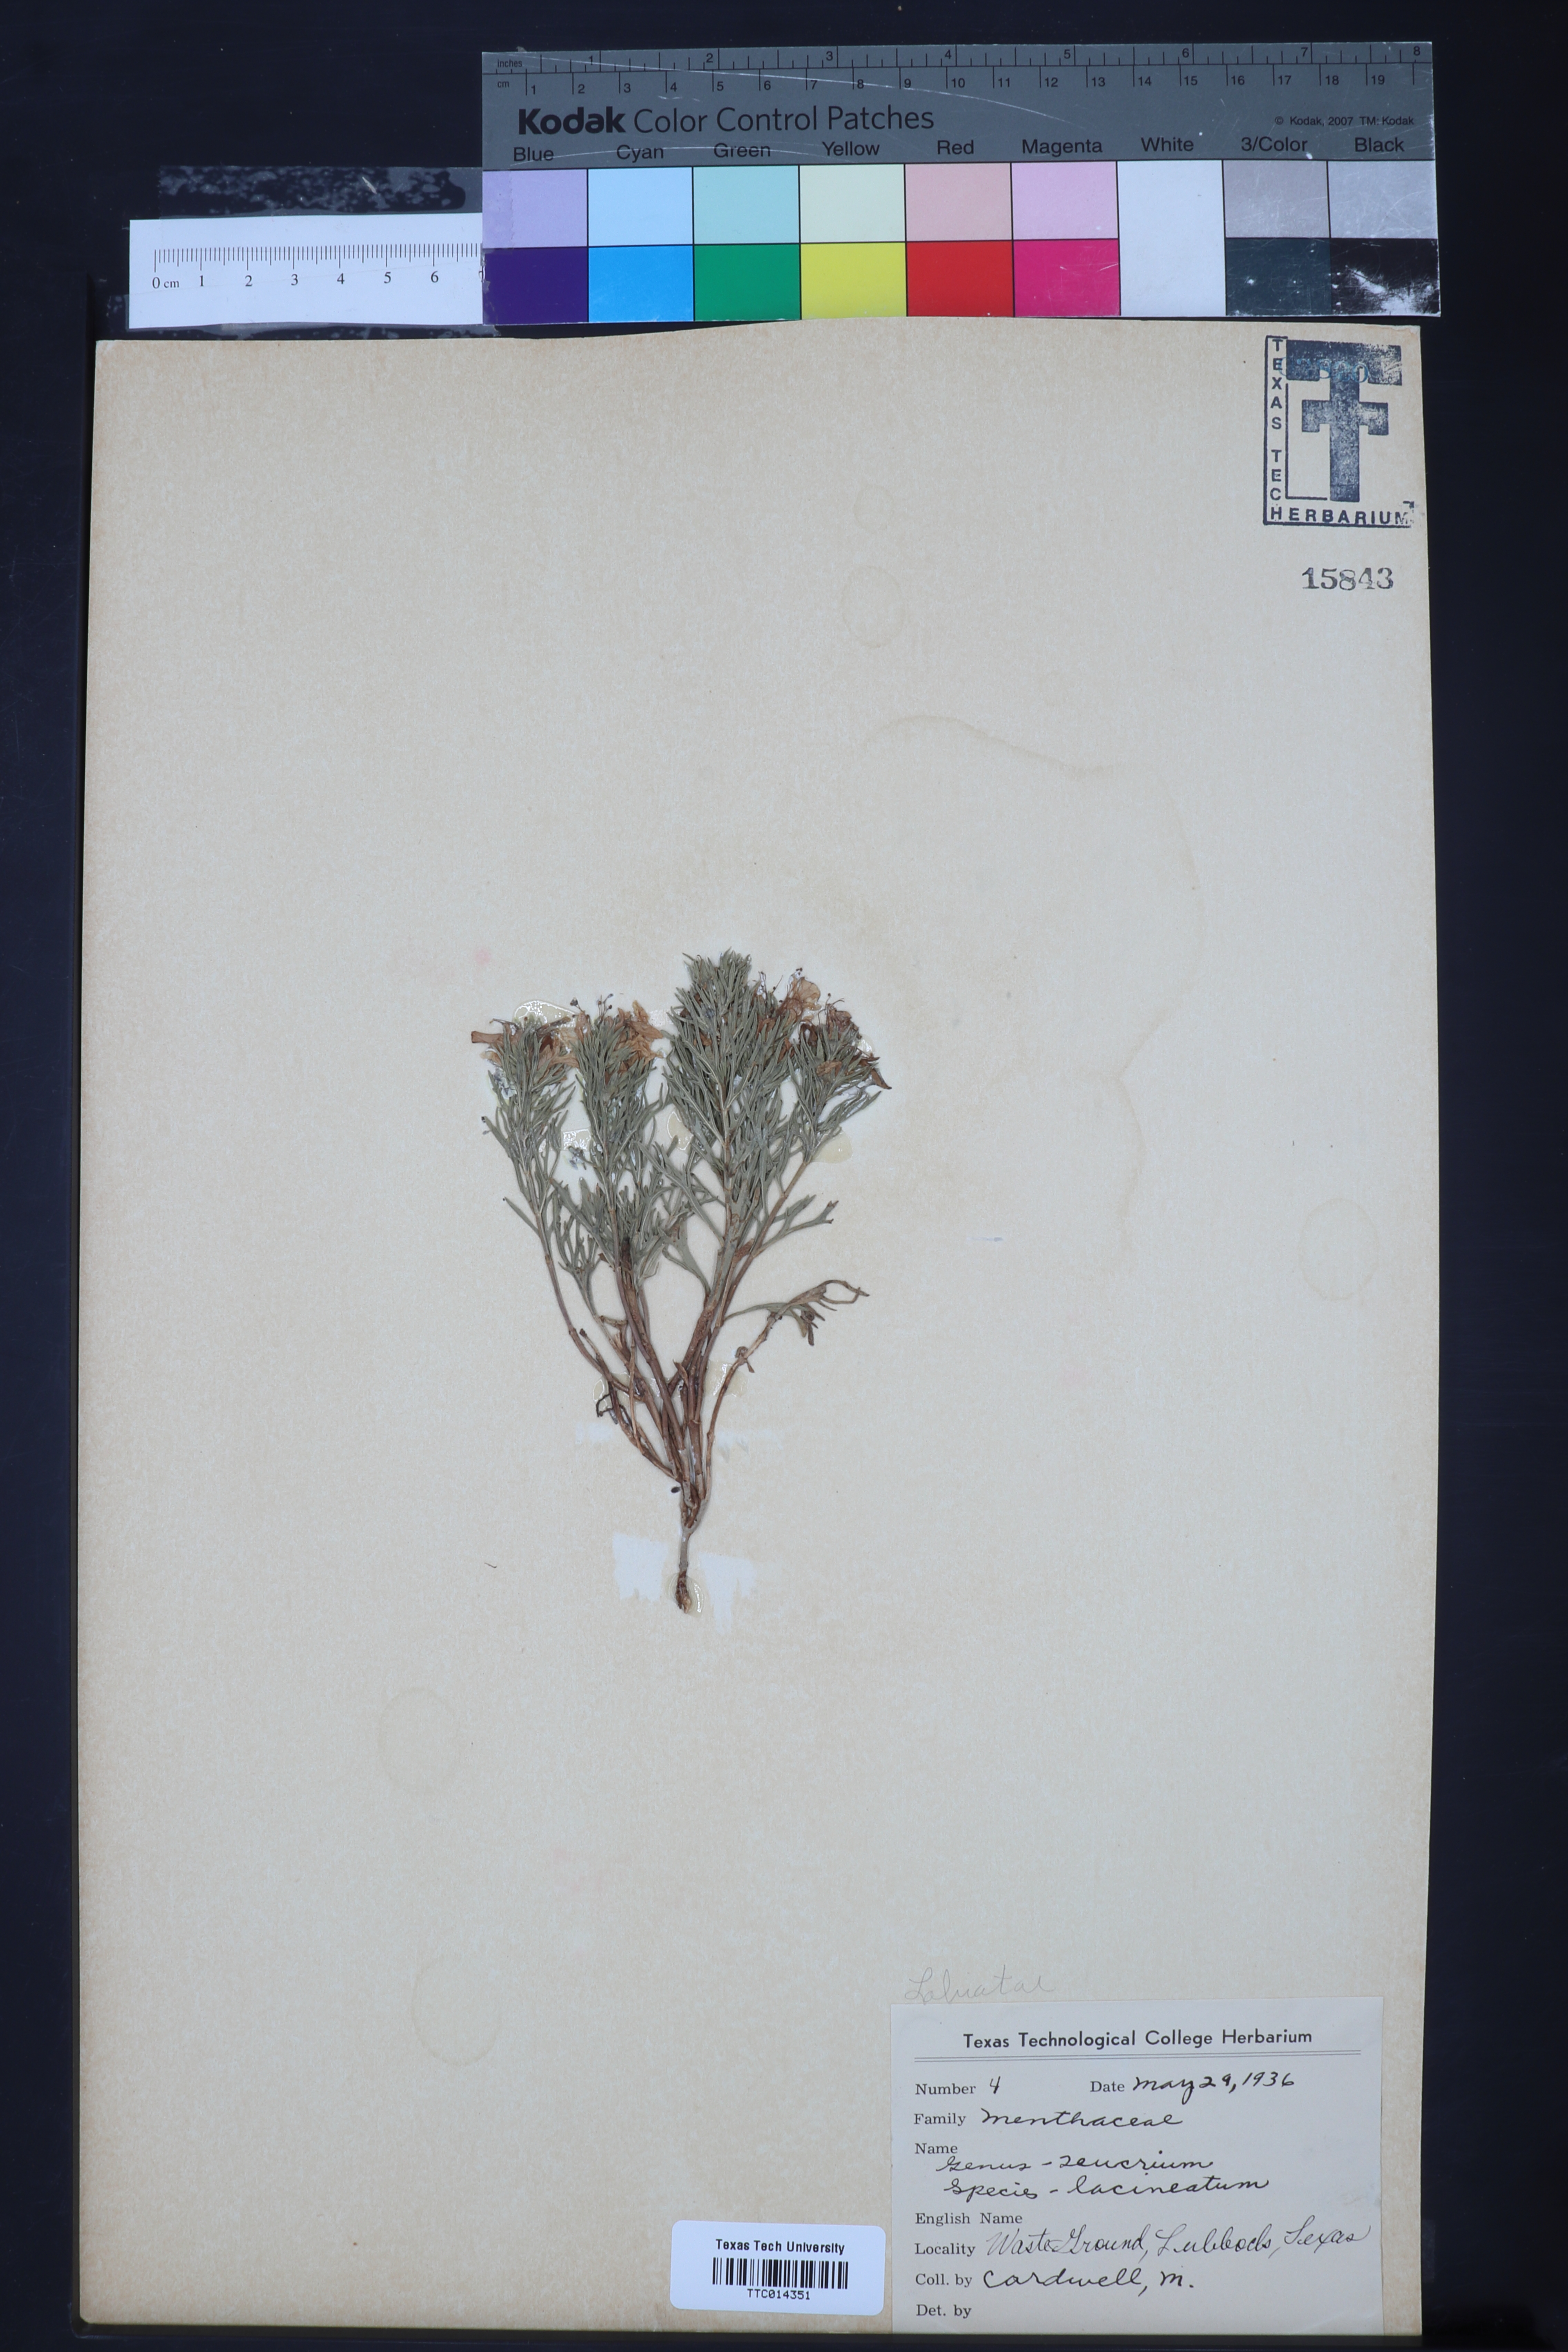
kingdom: Plantae
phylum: Tracheophyta
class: Magnoliopsida
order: Lamiales
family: Lamiaceae
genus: Teucrium
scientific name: Teucrium laciniatum
